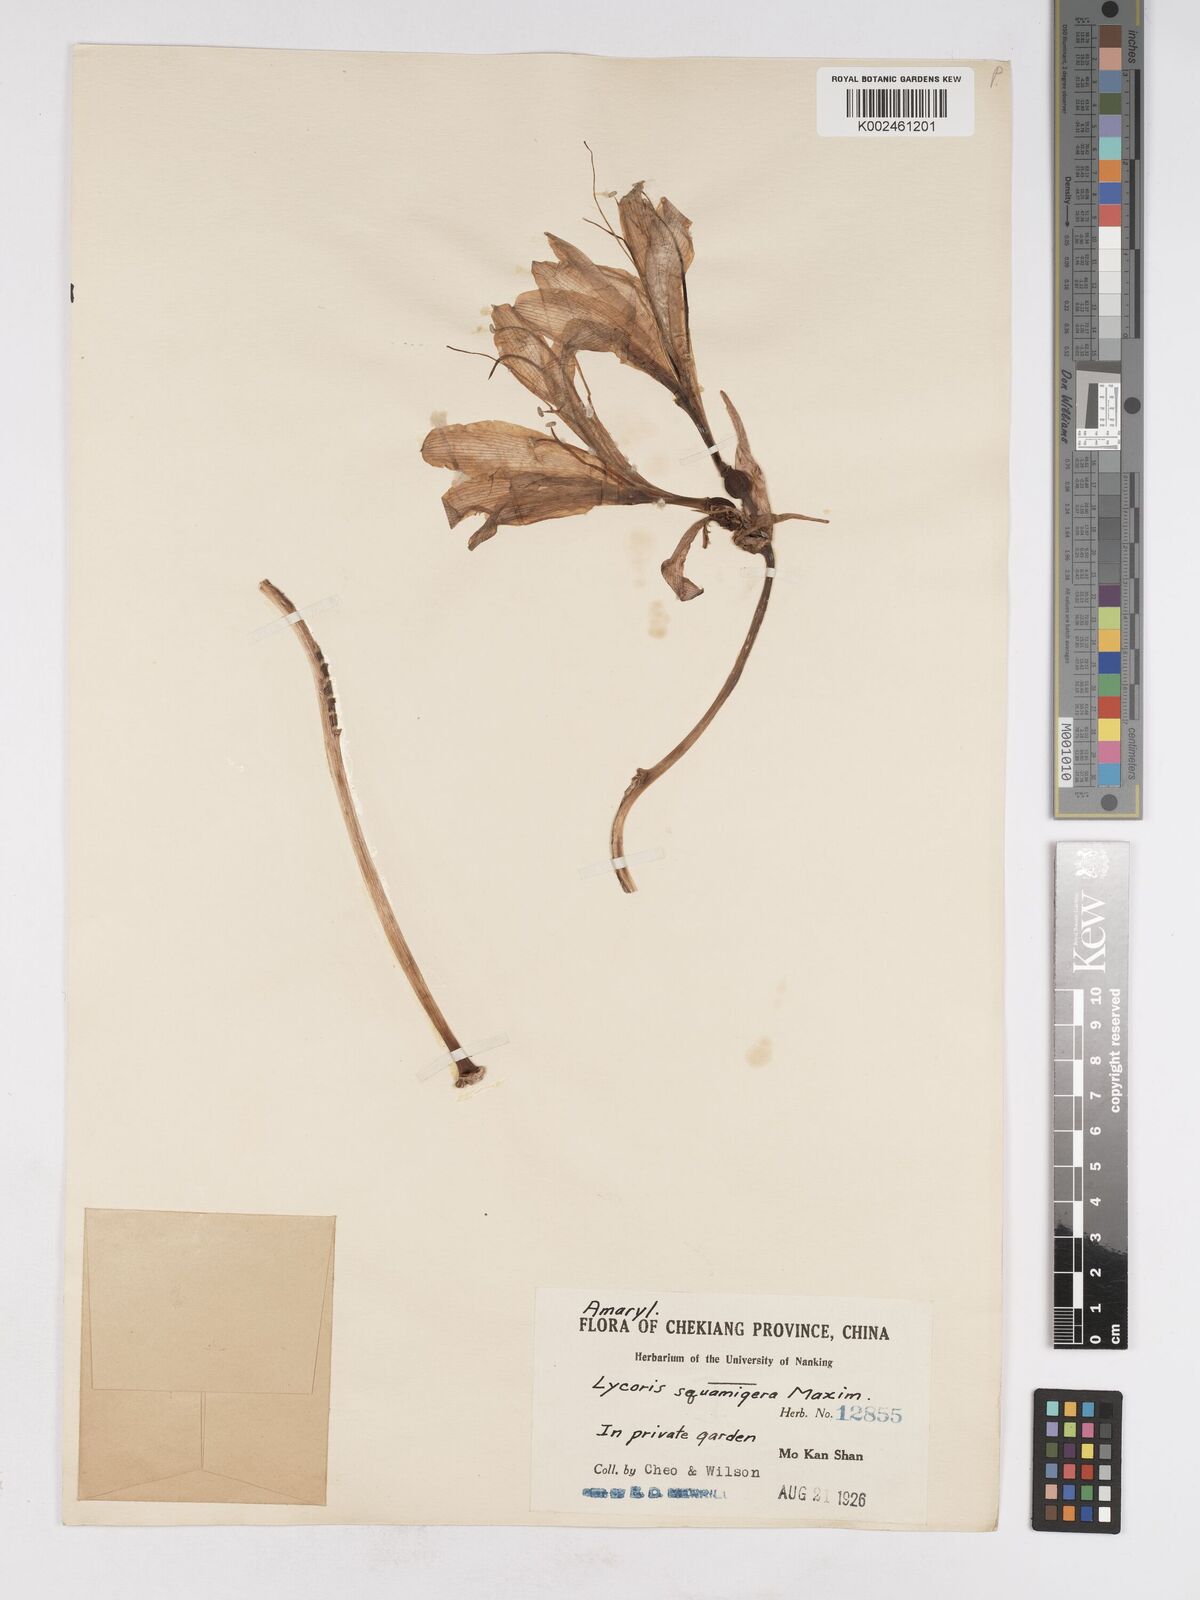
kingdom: Plantae
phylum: Tracheophyta
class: Liliopsida
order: Asparagales
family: Amaryllidaceae
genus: Lycoris
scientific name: Lycoris squamigera
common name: Magic-lily
